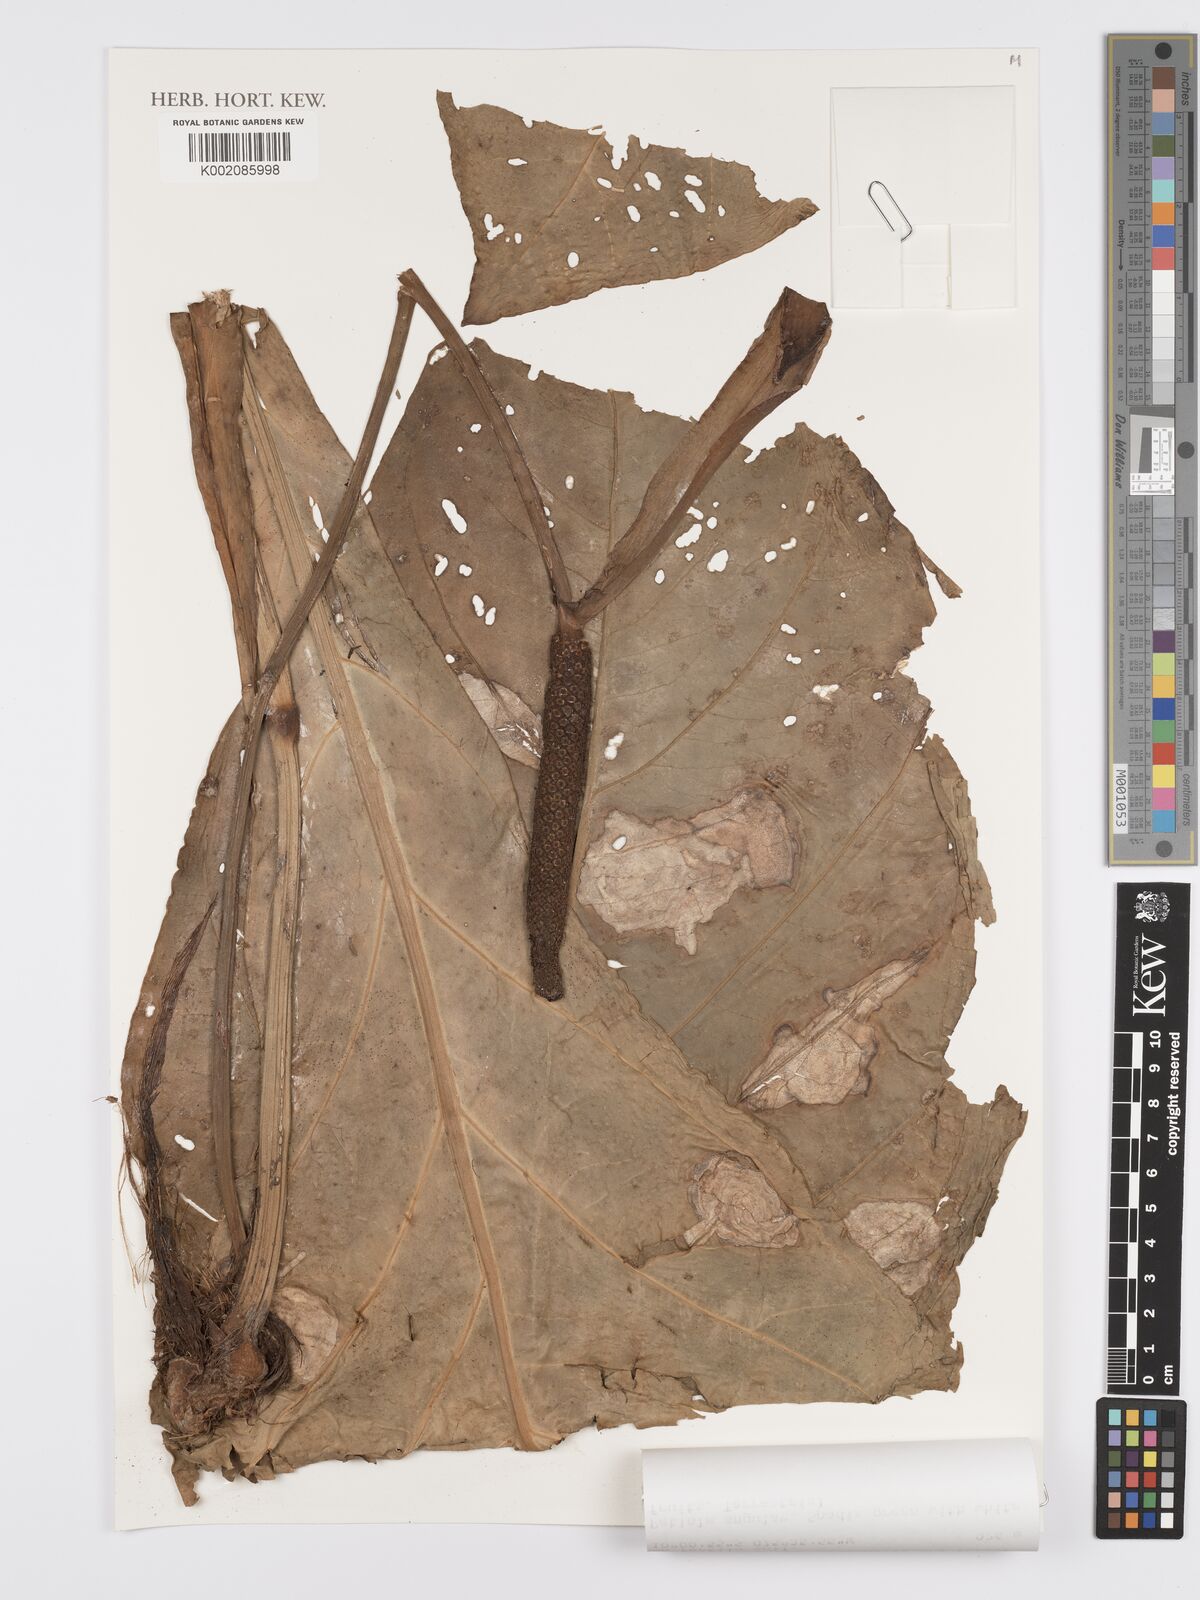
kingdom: Plantae
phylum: Tracheophyta
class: Liliopsida
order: Alismatales
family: Araceae
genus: Anthurium
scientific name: Anthurium dombeyanum
